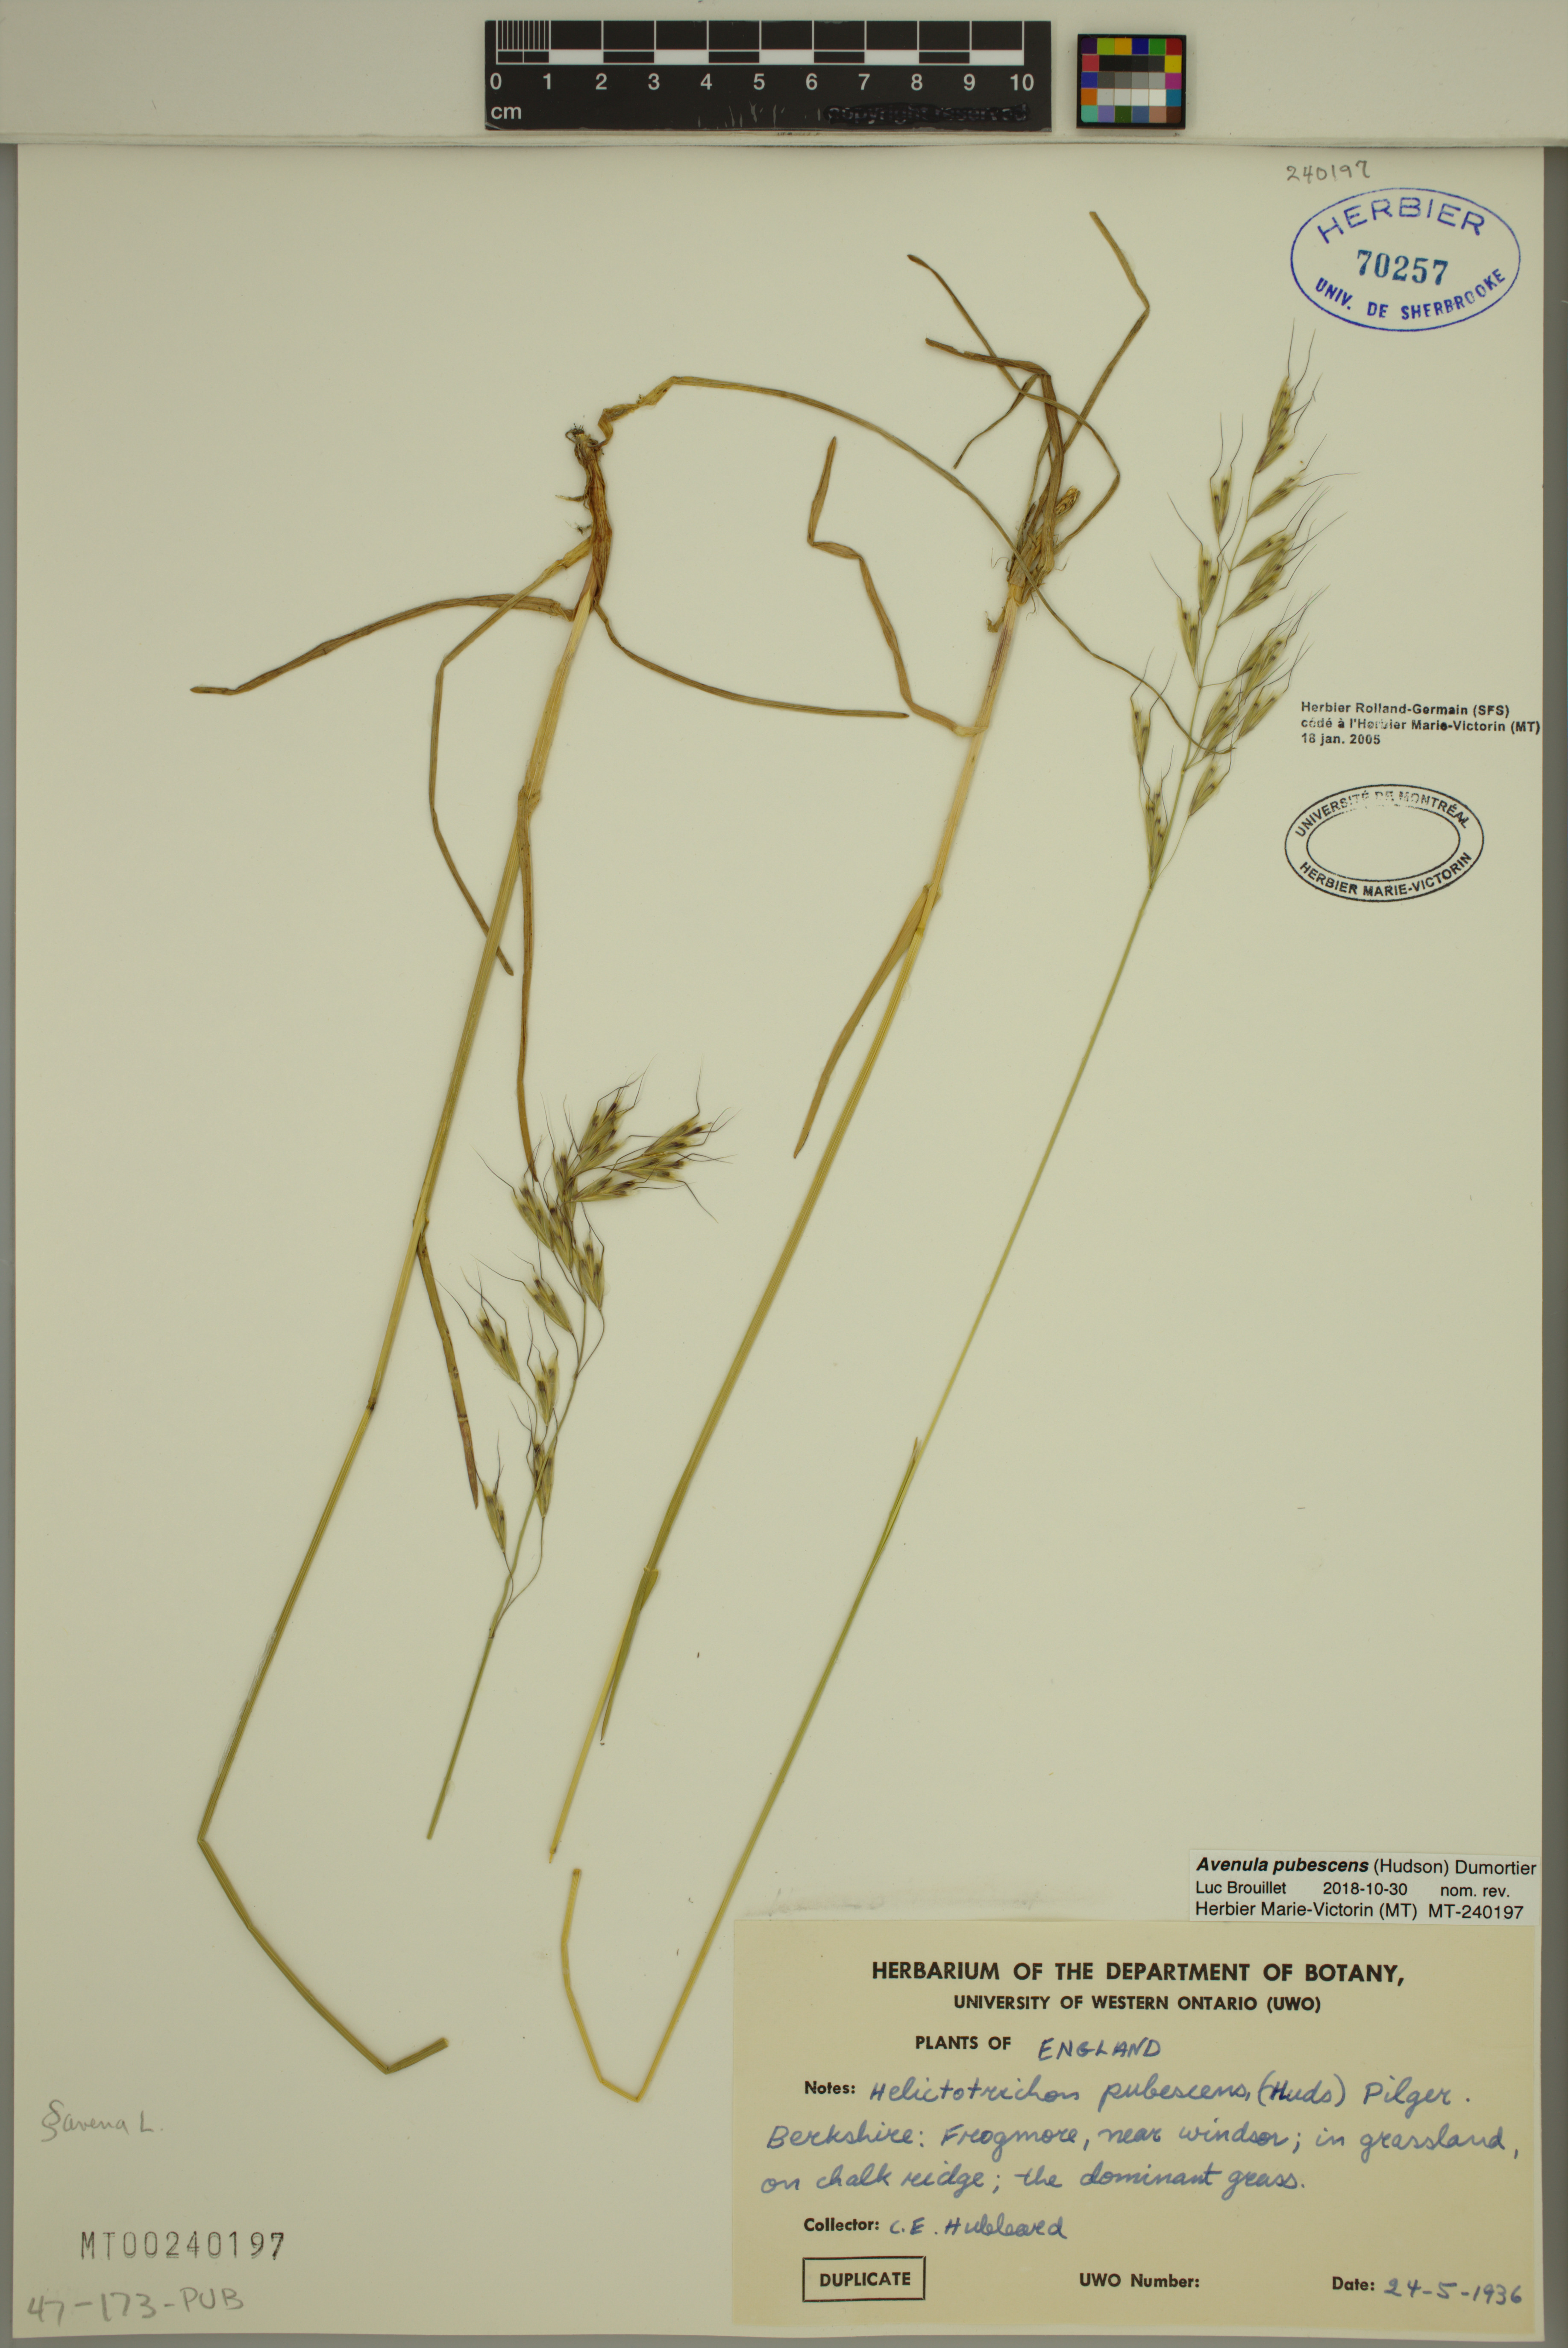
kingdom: Plantae
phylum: Tracheophyta
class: Liliopsida
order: Poales
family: Poaceae
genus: Avenula
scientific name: Avenula pubescens
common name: Downy alpine oatgrass
